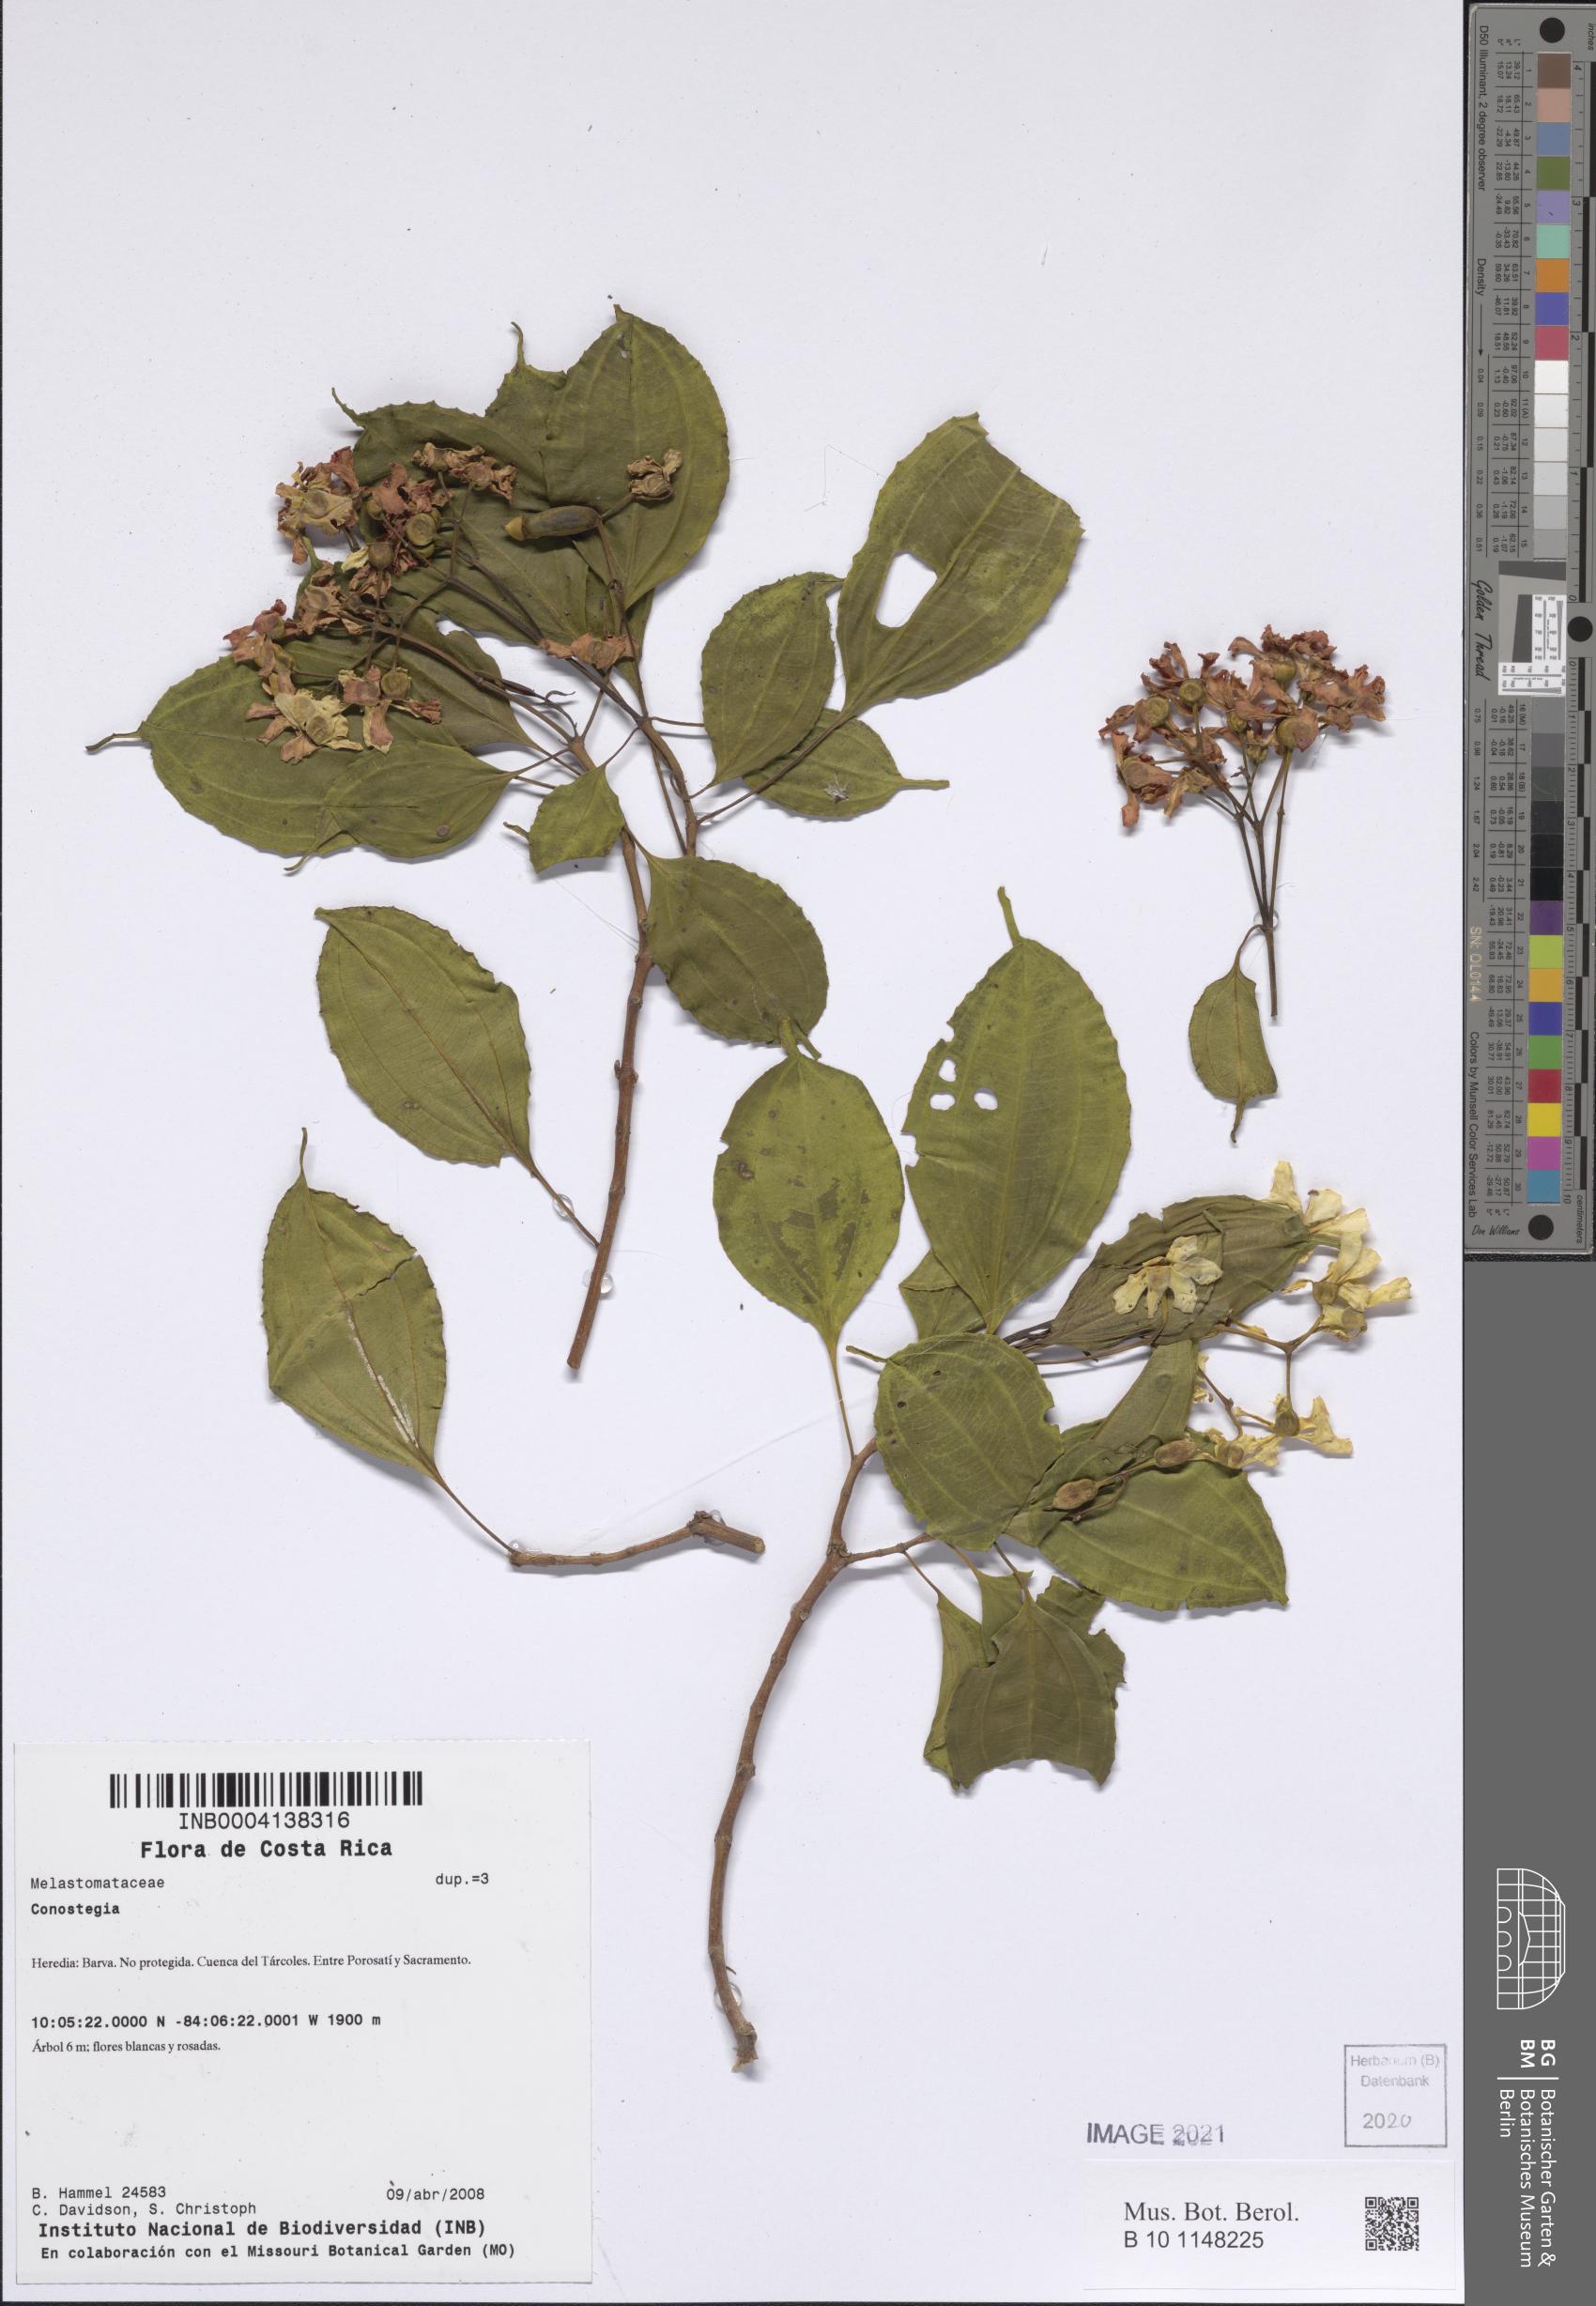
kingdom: Plantae
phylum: Tracheophyta
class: Magnoliopsida
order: Myrtales
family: Melastomataceae
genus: Miconia
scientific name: Miconia
